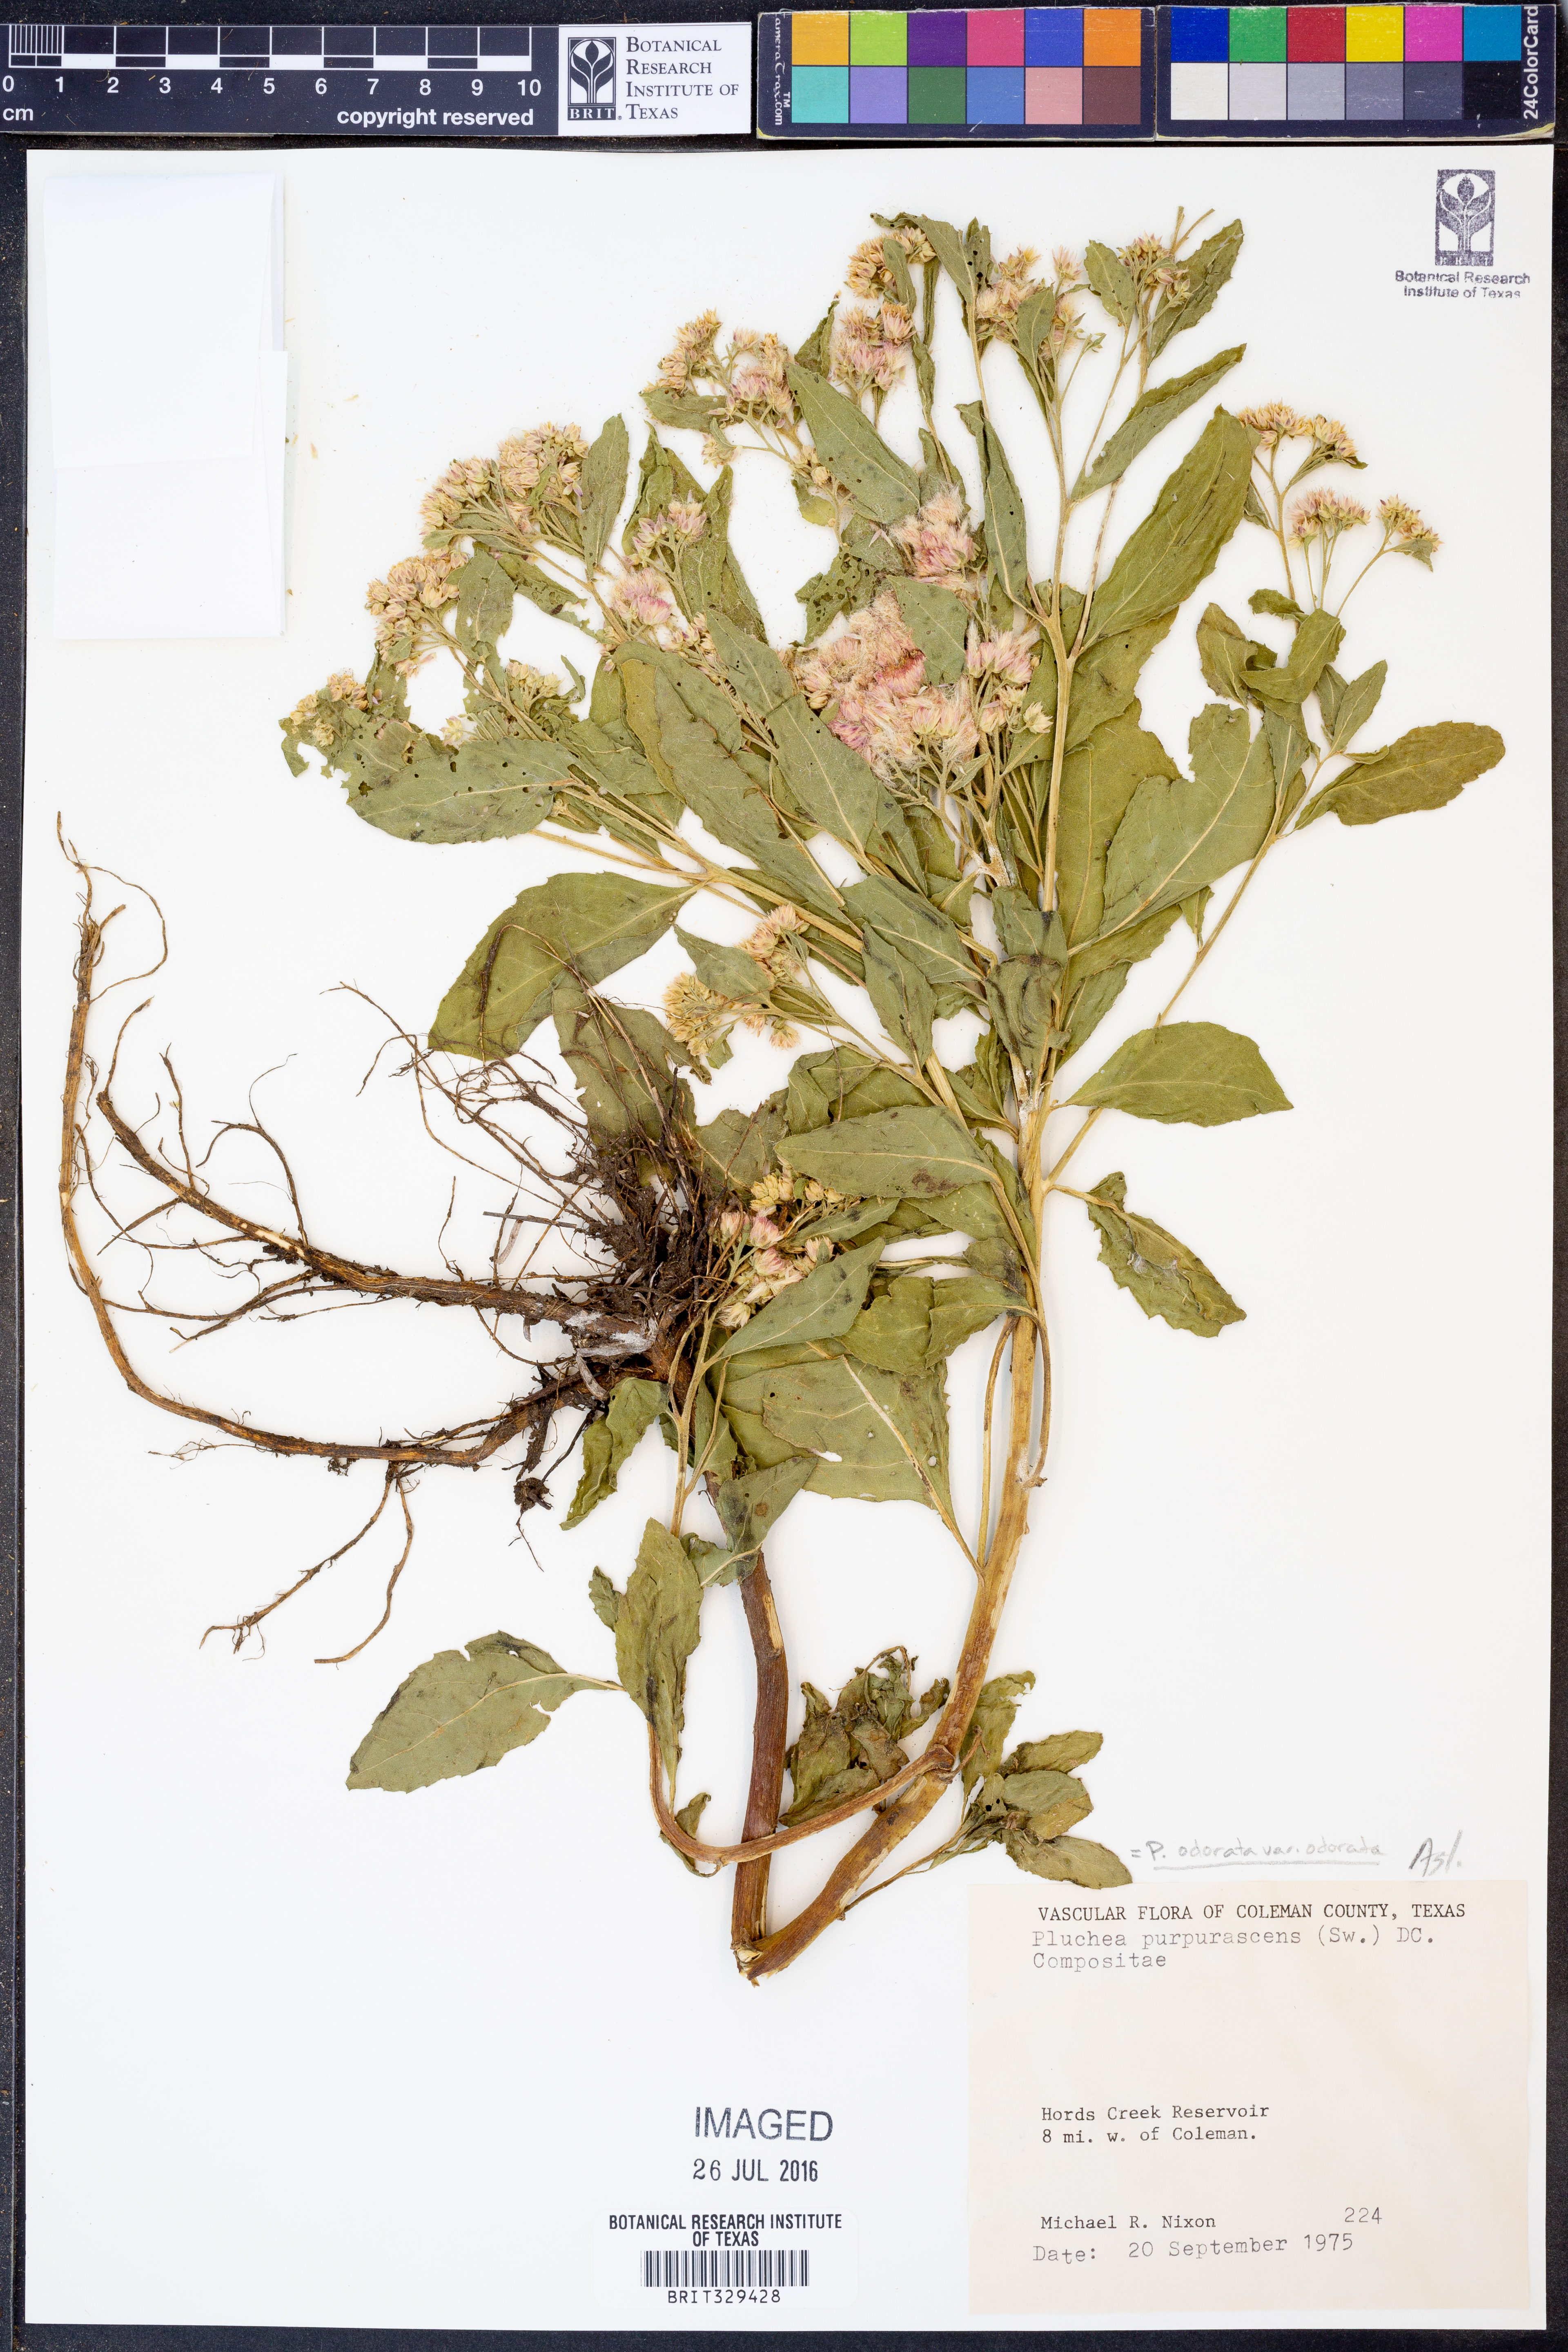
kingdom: Plantae
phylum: Tracheophyta
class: Magnoliopsida
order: Asterales
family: Asteraceae
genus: Pluchea
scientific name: Pluchea odorata
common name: Saltmarsh fleabane
